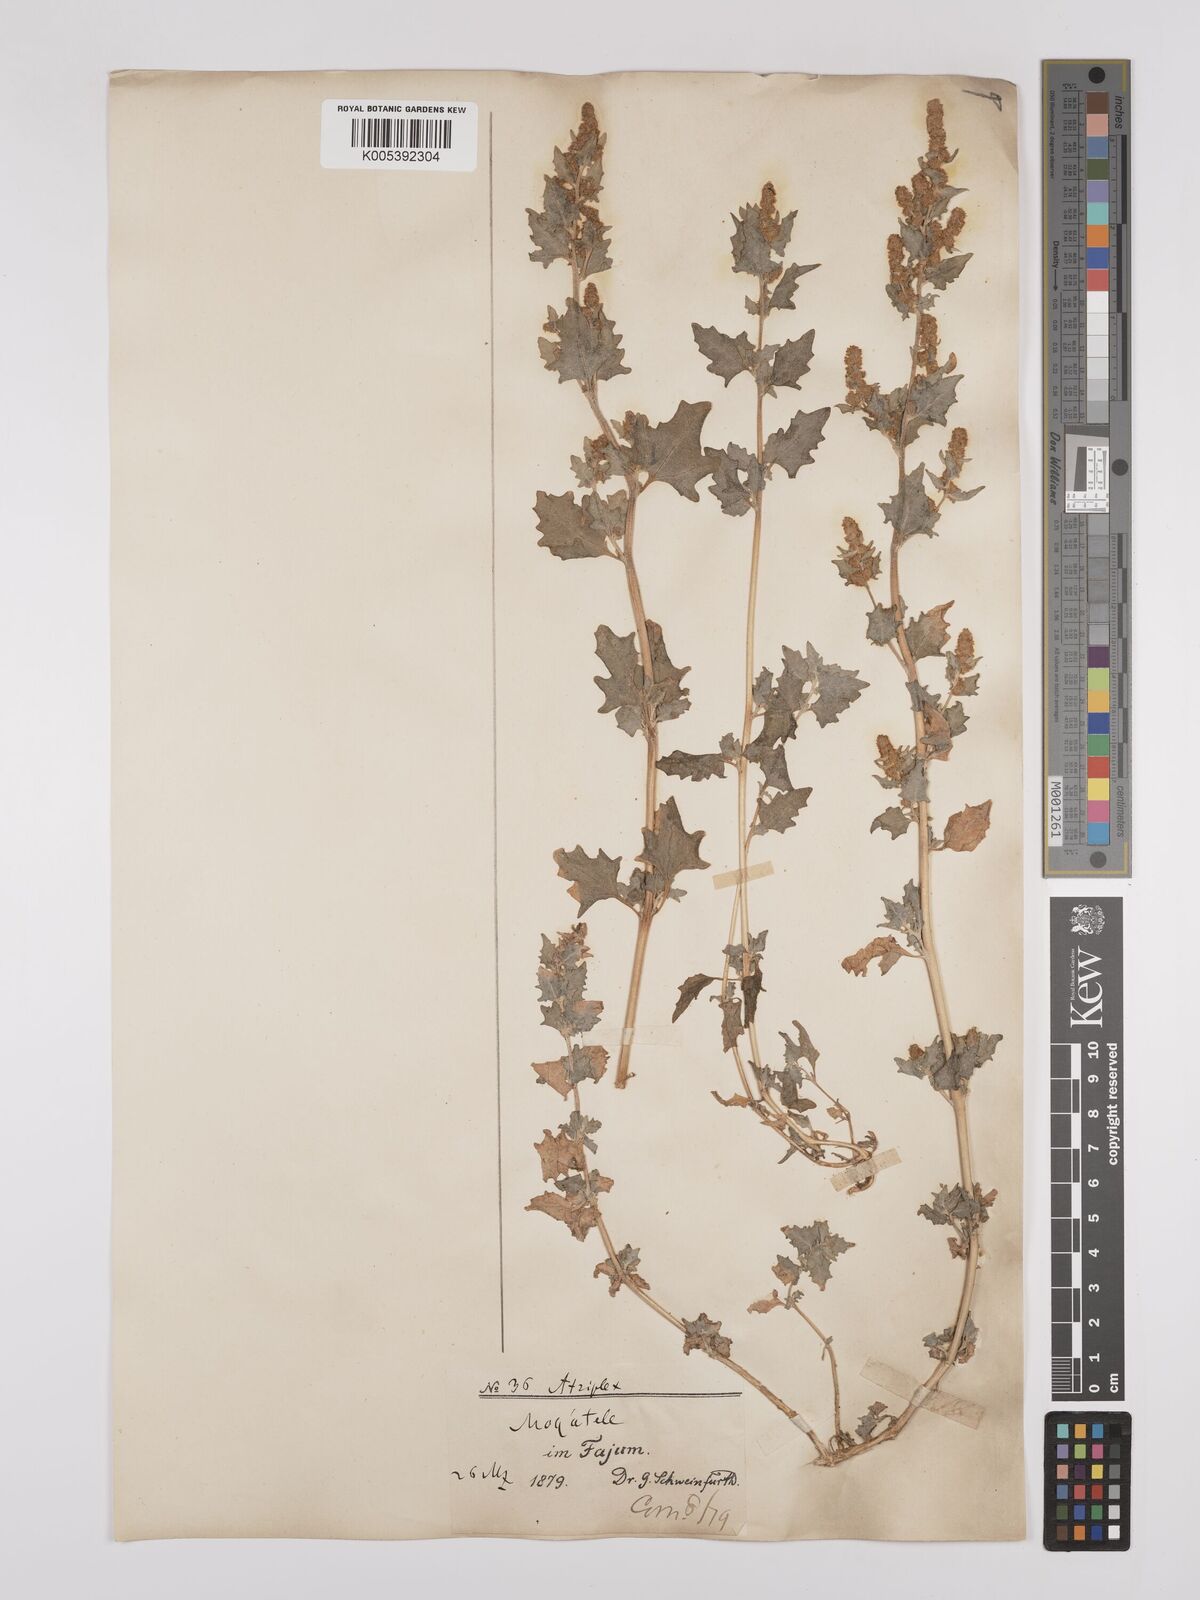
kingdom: Plantae
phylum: Tracheophyta
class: Magnoliopsida
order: Caryophyllales
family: Amaranthaceae
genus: Atriplex
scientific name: Atriplex
